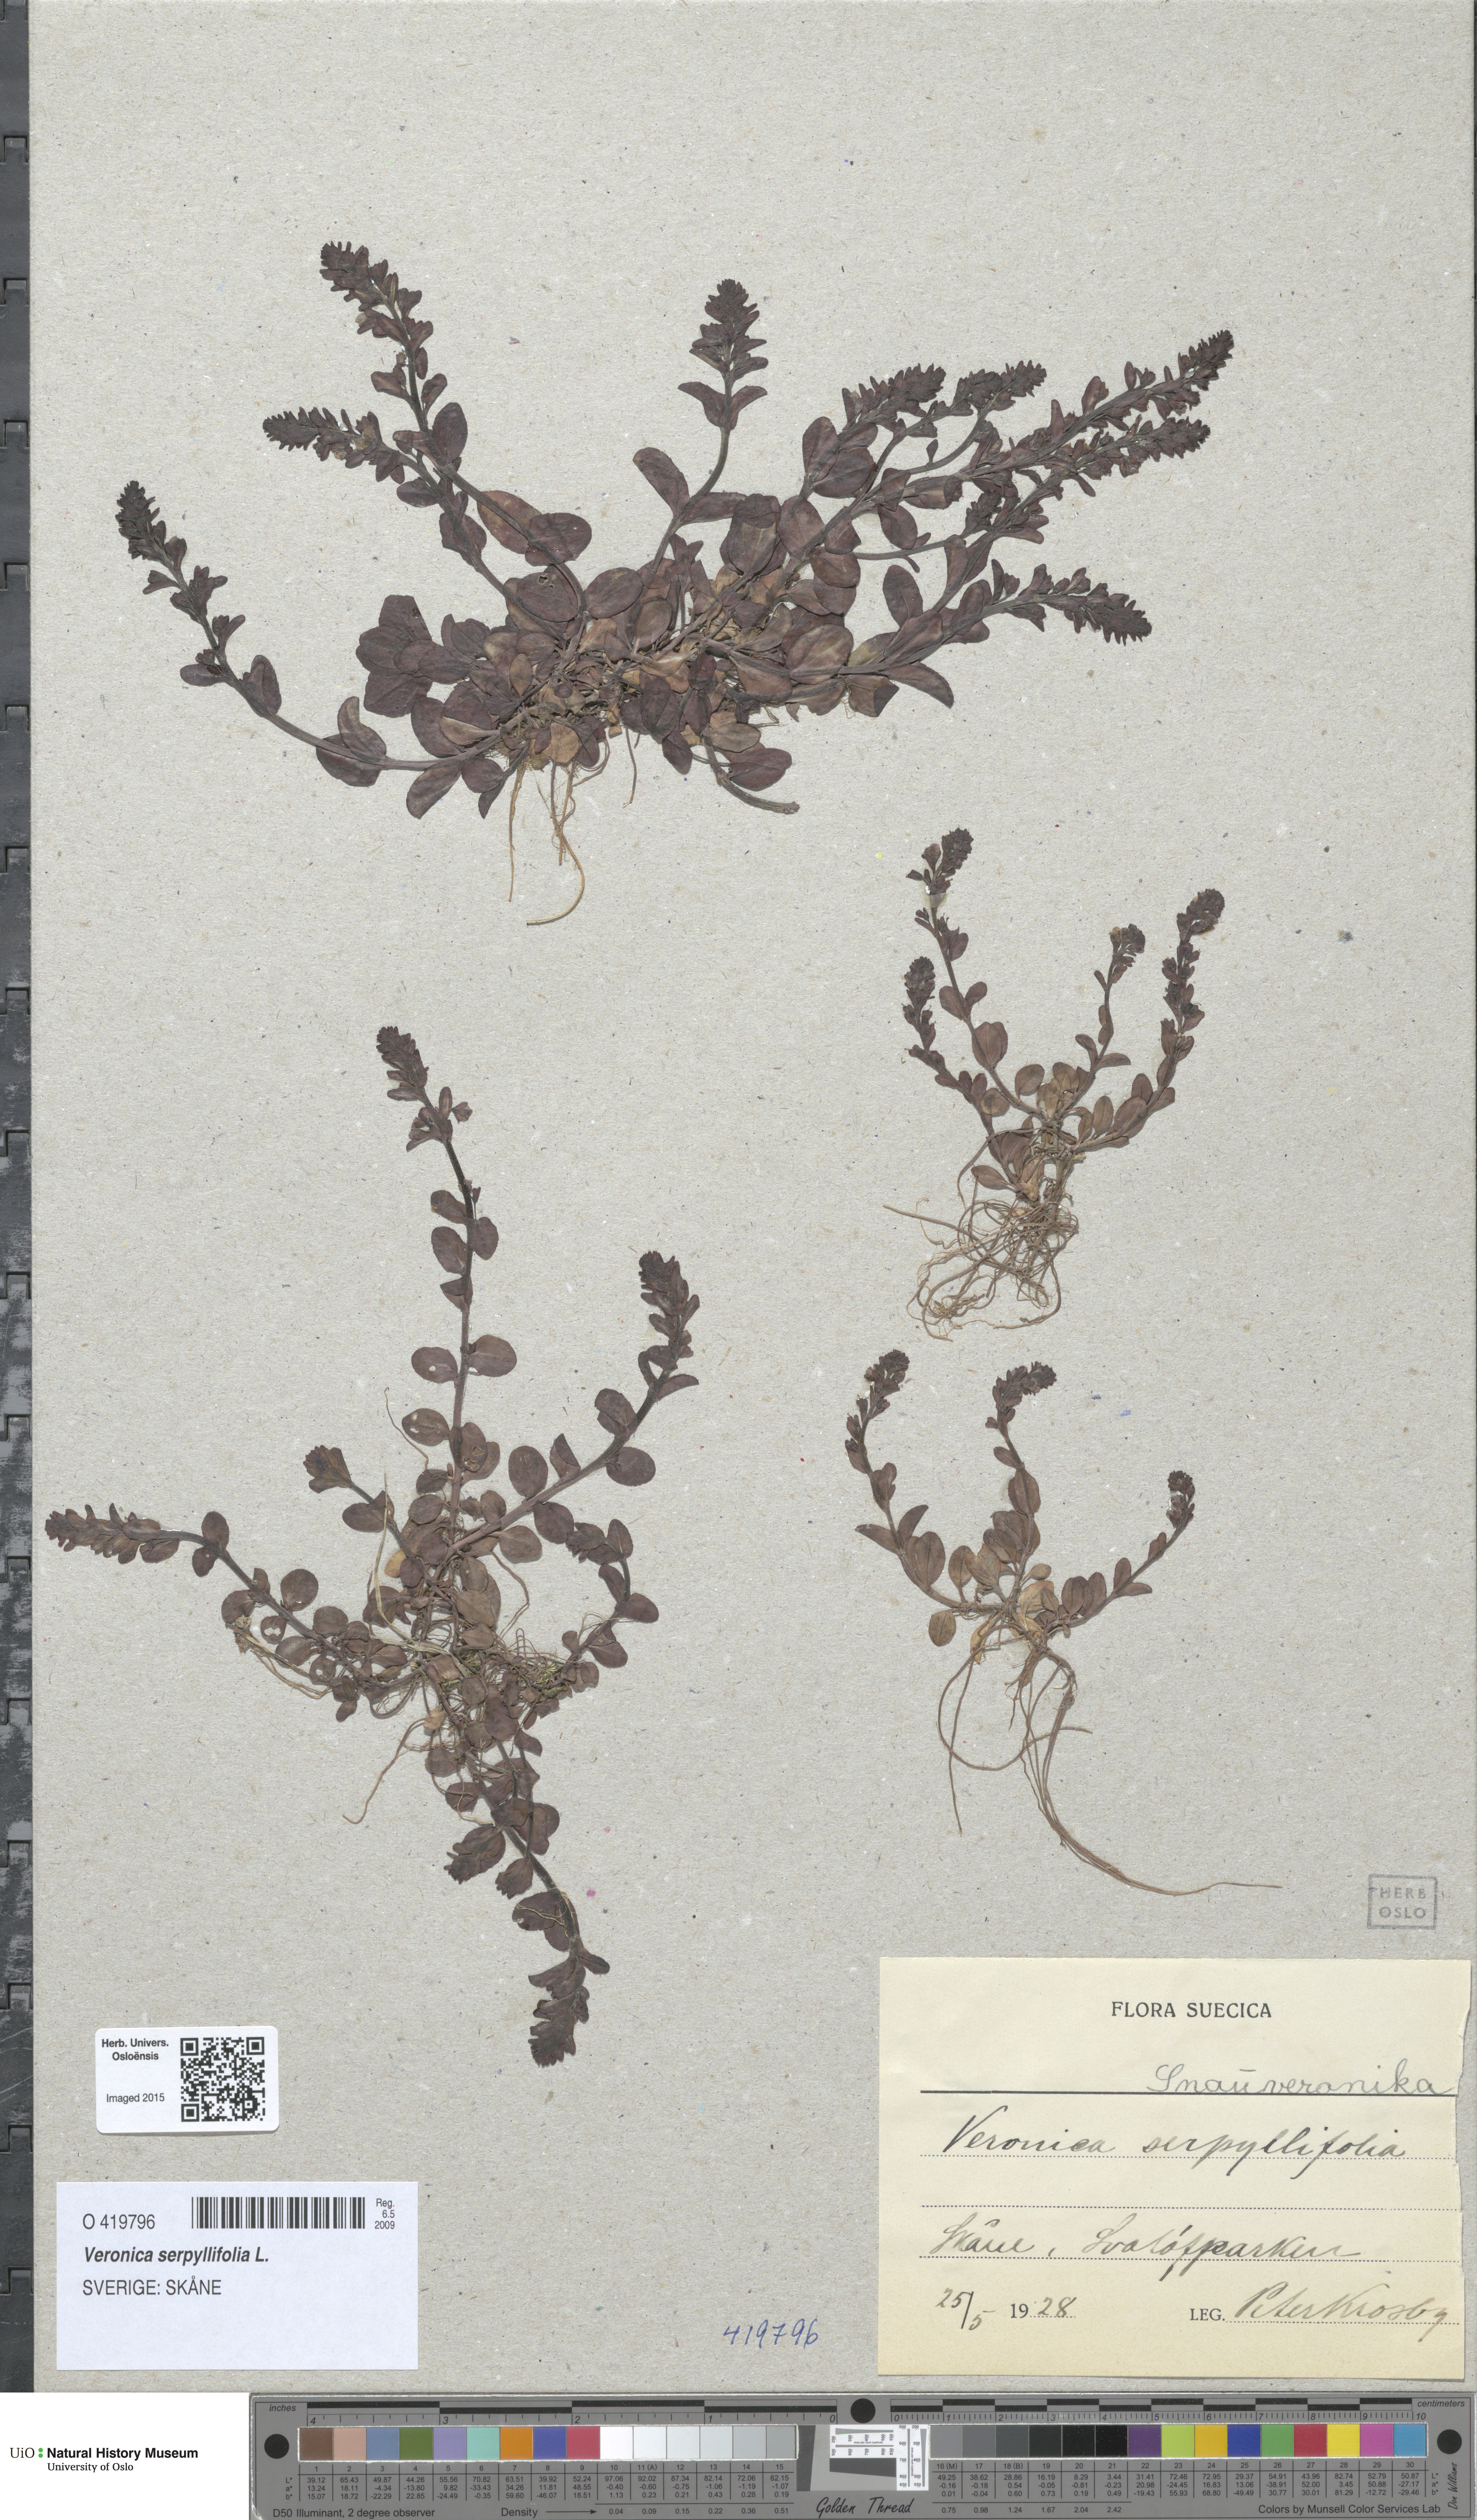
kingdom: Plantae
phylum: Tracheophyta
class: Magnoliopsida
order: Lamiales
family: Plantaginaceae
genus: Veronica
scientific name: Veronica serpyllifolia
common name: Thyme-leaved speedwell
